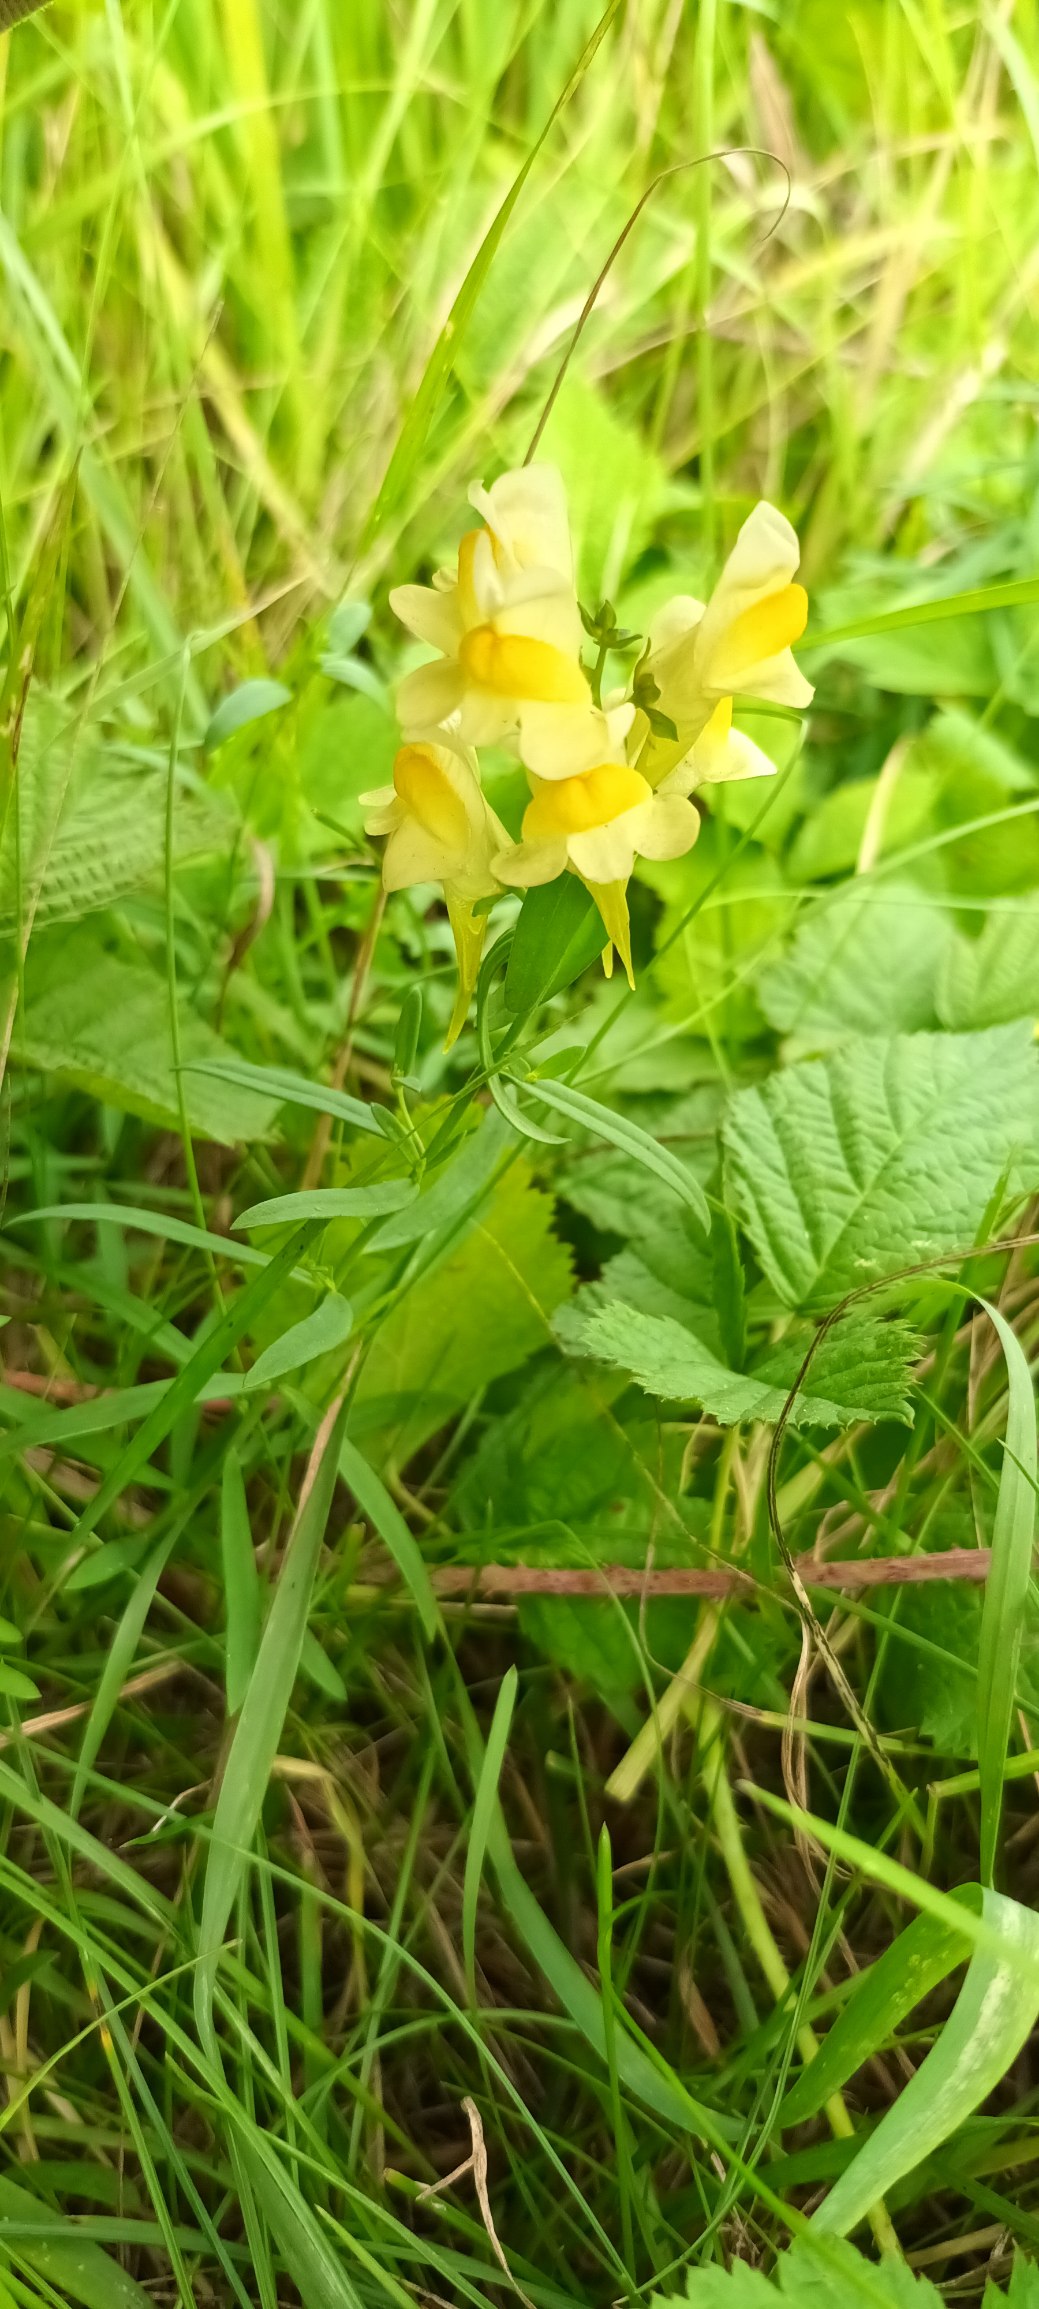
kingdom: Plantae
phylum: Tracheophyta
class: Magnoliopsida
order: Lamiales
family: Plantaginaceae
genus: Linaria
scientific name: Linaria vulgaris
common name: Almindelig torskemund
